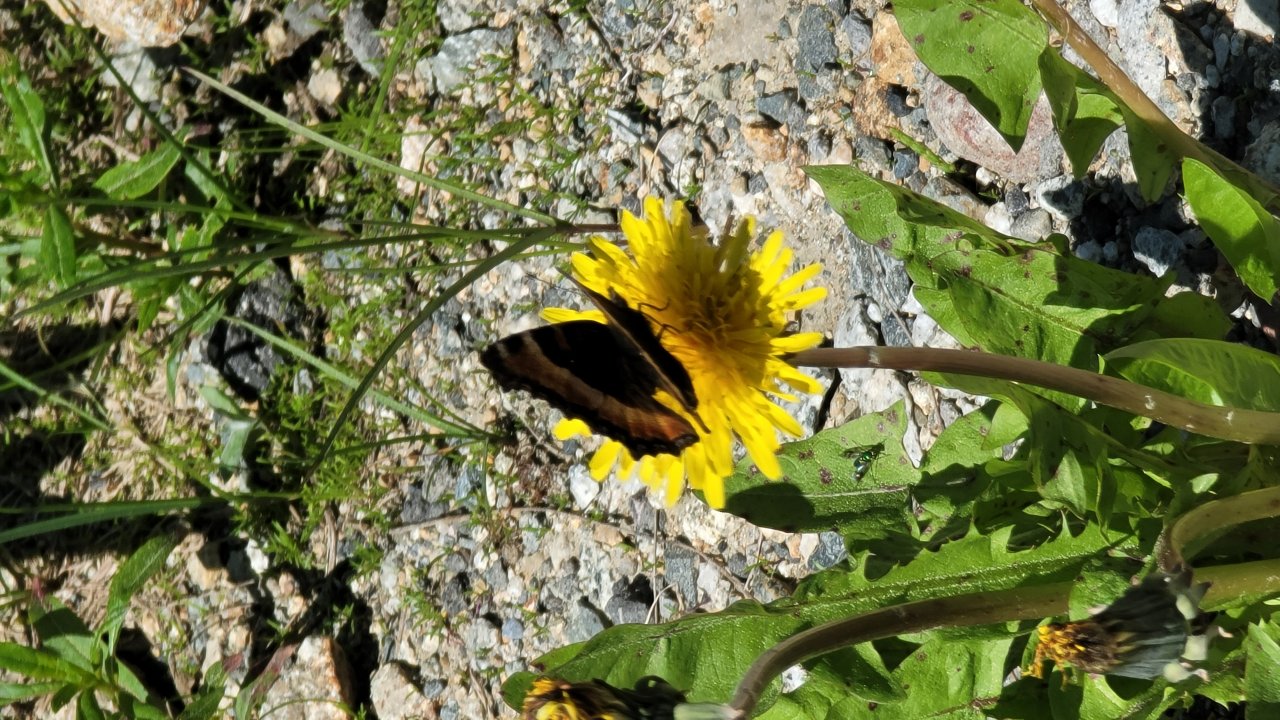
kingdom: Animalia
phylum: Arthropoda
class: Insecta
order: Lepidoptera
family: Nymphalidae
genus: Aglais
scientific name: Aglais milberti
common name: Milbert's Tortoiseshell
